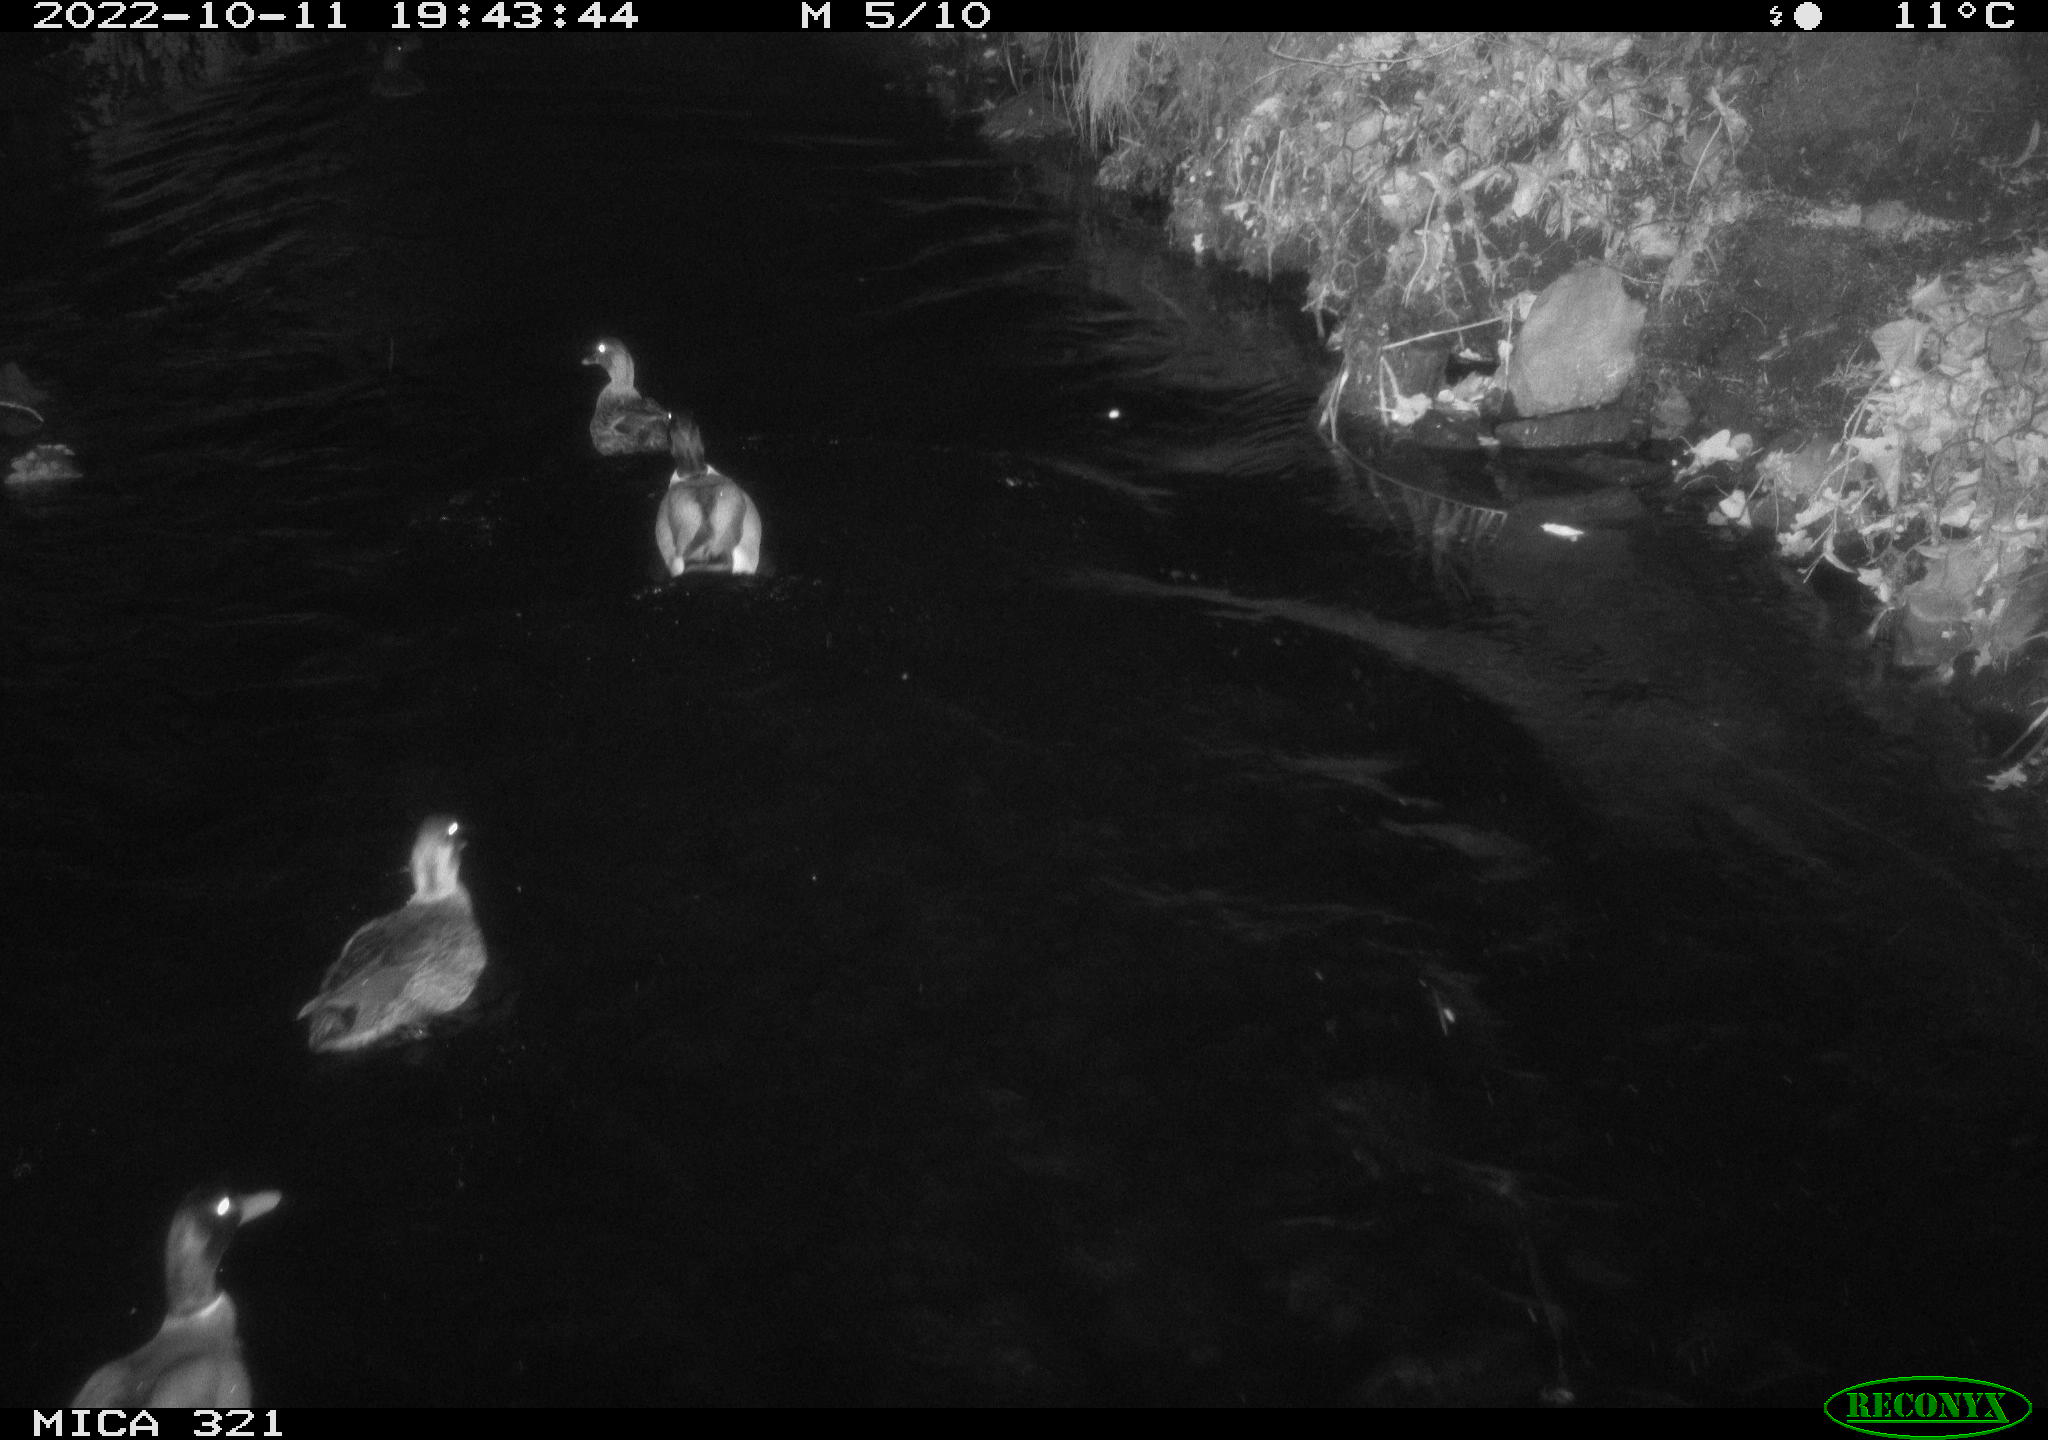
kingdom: Animalia
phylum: Chordata
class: Aves
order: Anseriformes
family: Anatidae
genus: Anas
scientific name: Anas
